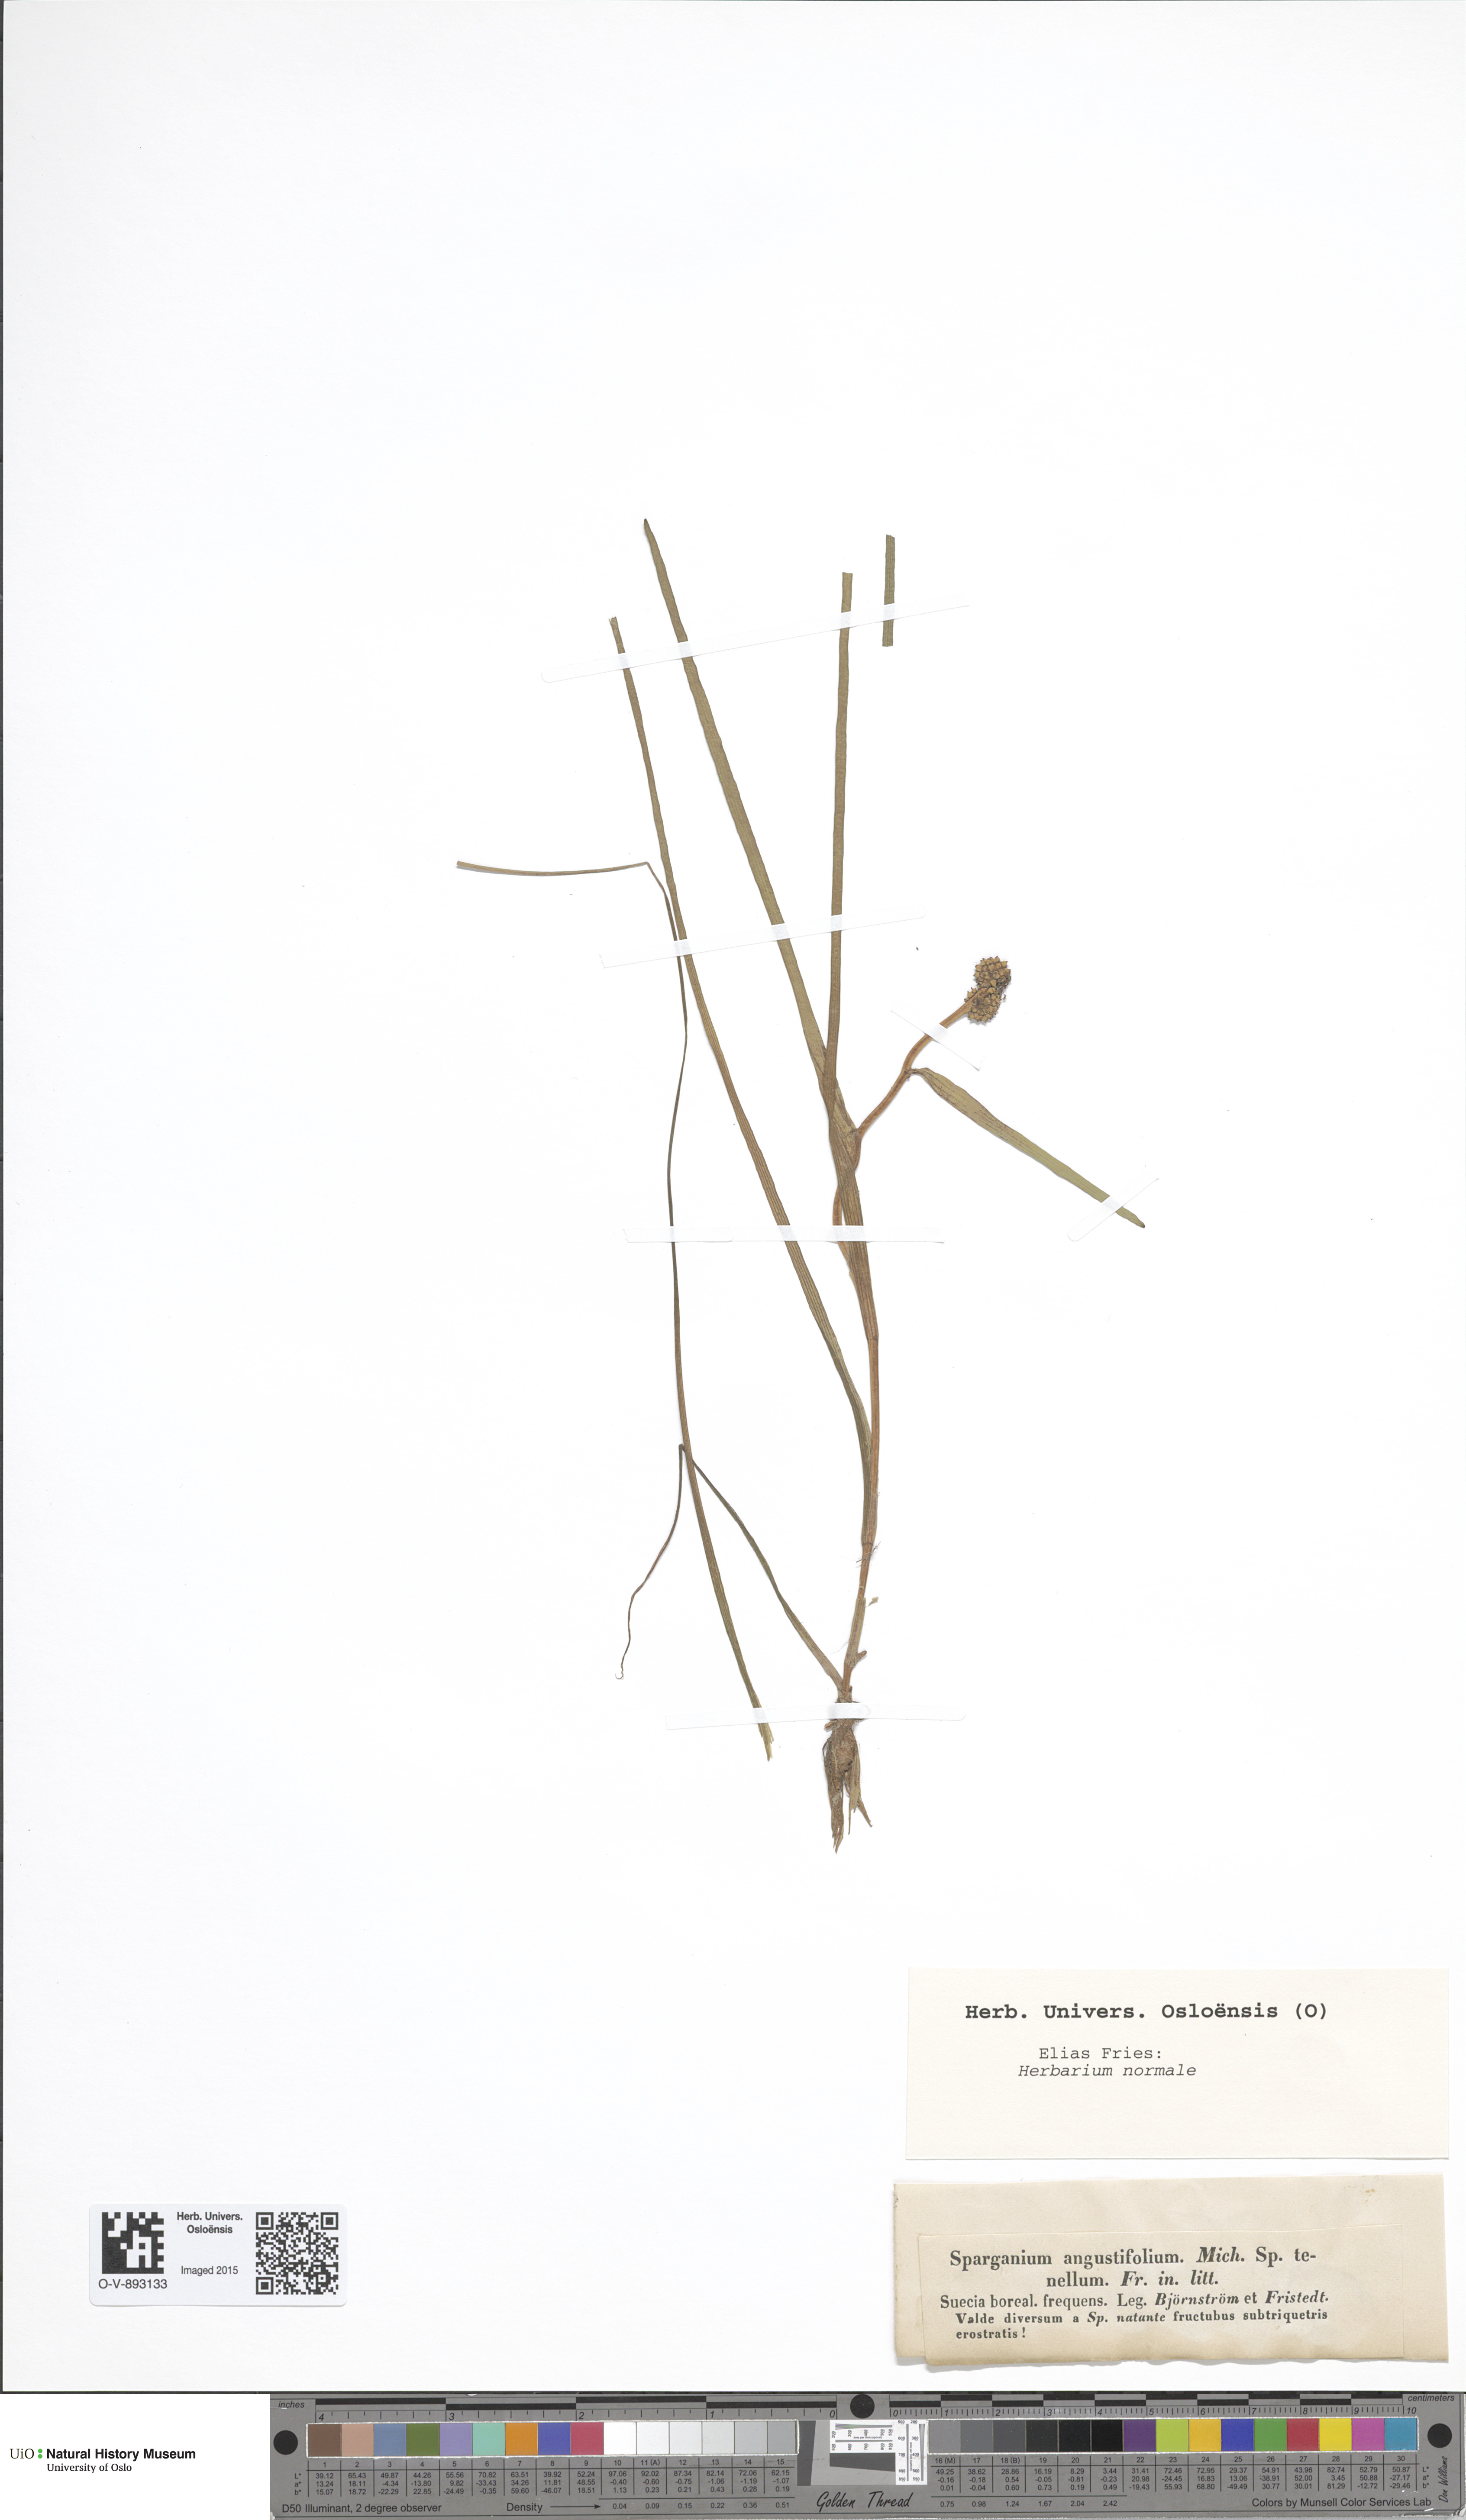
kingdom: Plantae
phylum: Tracheophyta
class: Liliopsida
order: Poales
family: Typhaceae
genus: Sparganium
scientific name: Sparganium angustifolium
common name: Floating bur-reed
